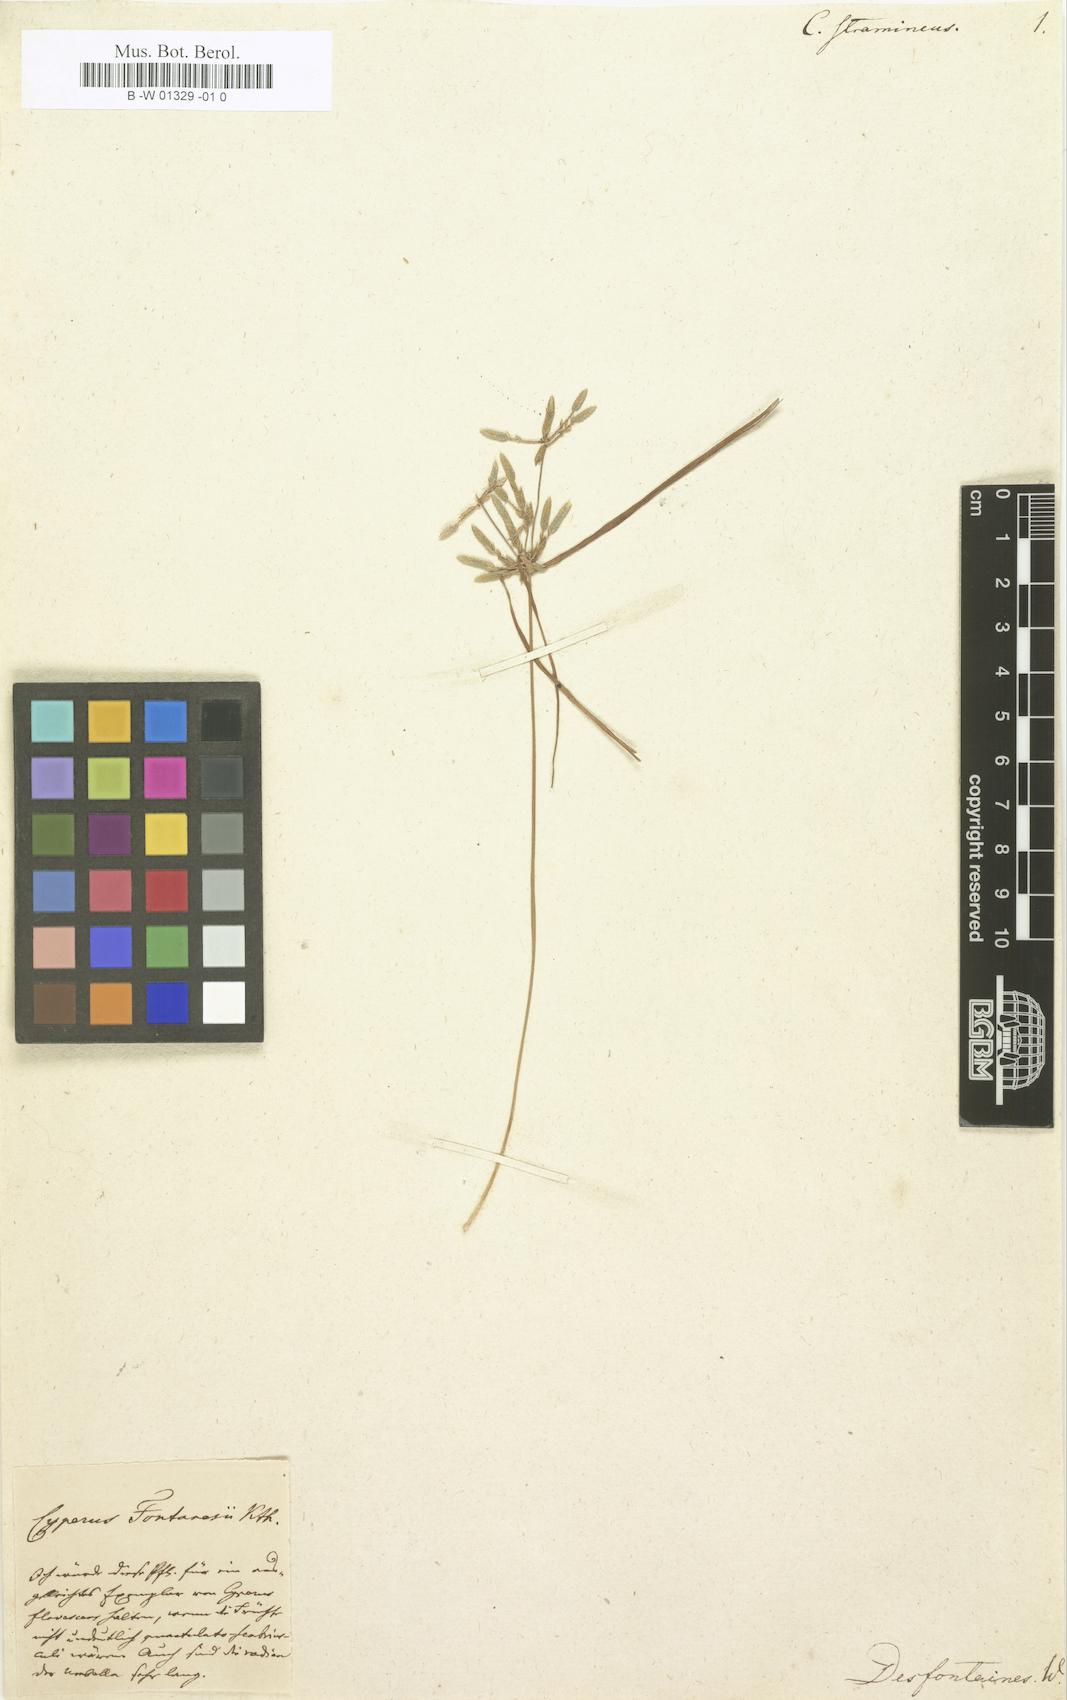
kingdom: Plantae
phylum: Tracheophyta
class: Liliopsida
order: Poales
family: Cyperaceae
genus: Cyperus
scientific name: Cyperus
